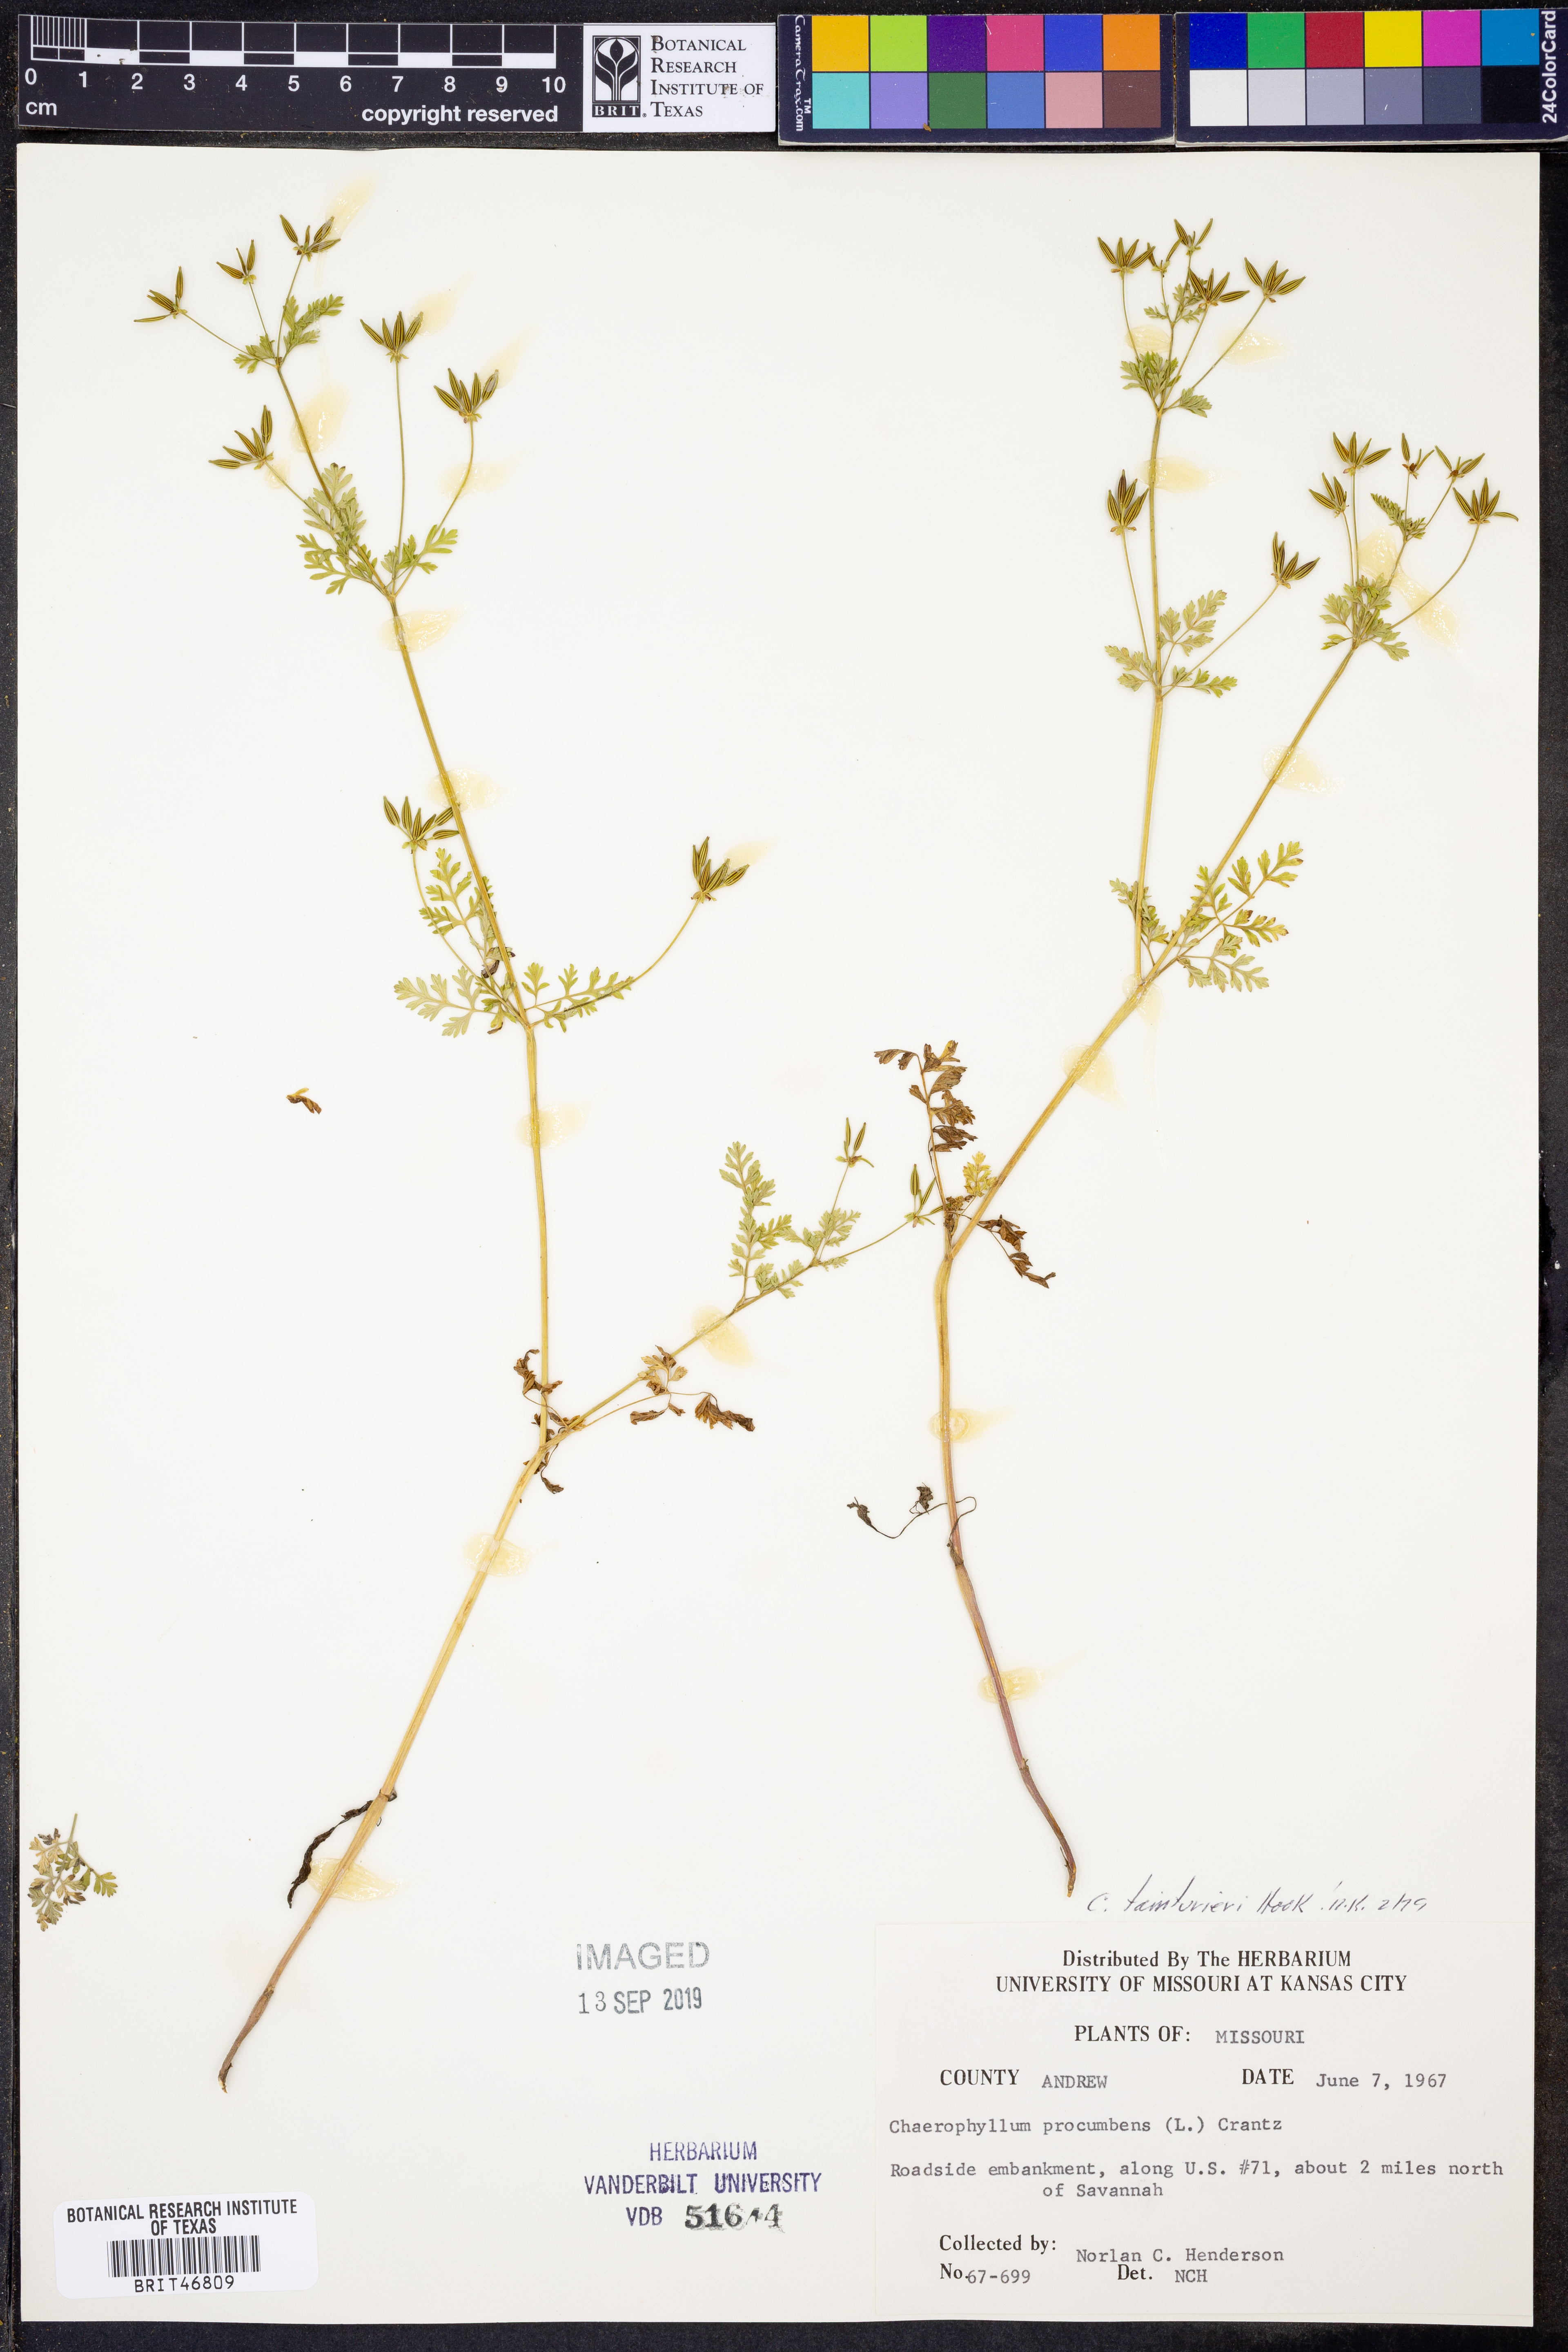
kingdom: Plantae
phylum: Tracheophyta
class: Magnoliopsida
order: Apiales
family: Apiaceae
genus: Chaerophyllum
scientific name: Chaerophyllum tainturieri
